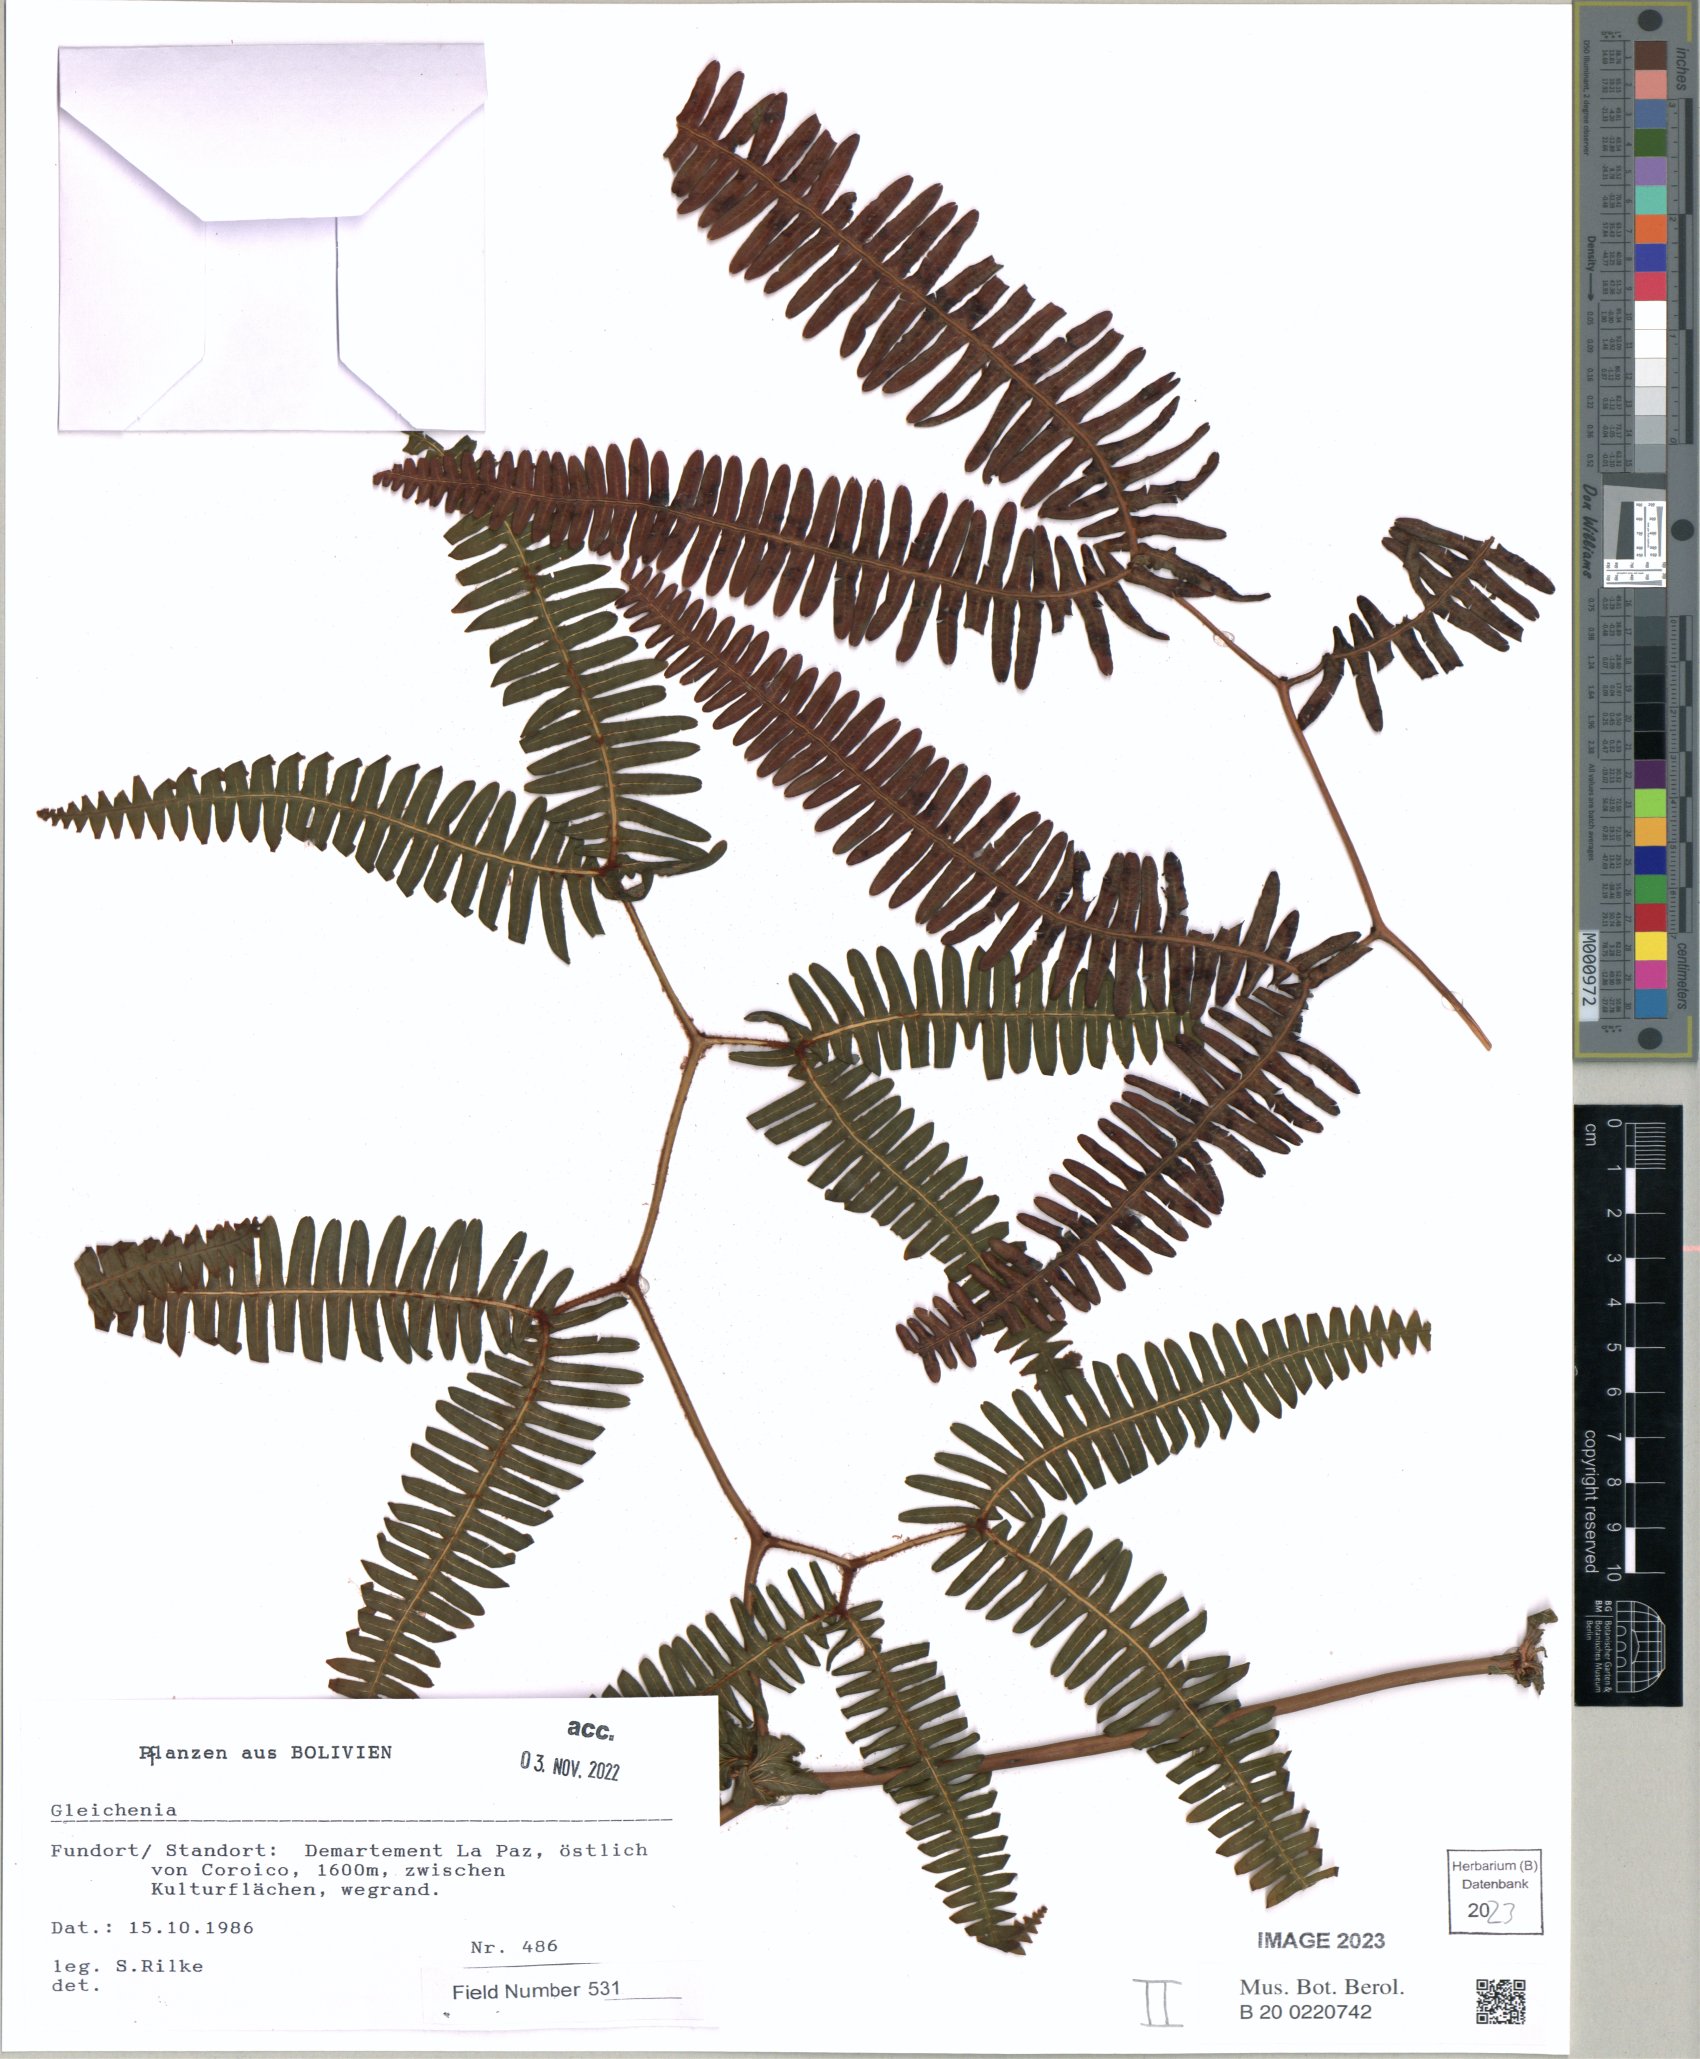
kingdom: Plantae
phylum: Tracheophyta
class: Polypodiopsida
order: Gleicheniales
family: Gleicheniaceae
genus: Gleichenia
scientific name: Gleichenia
